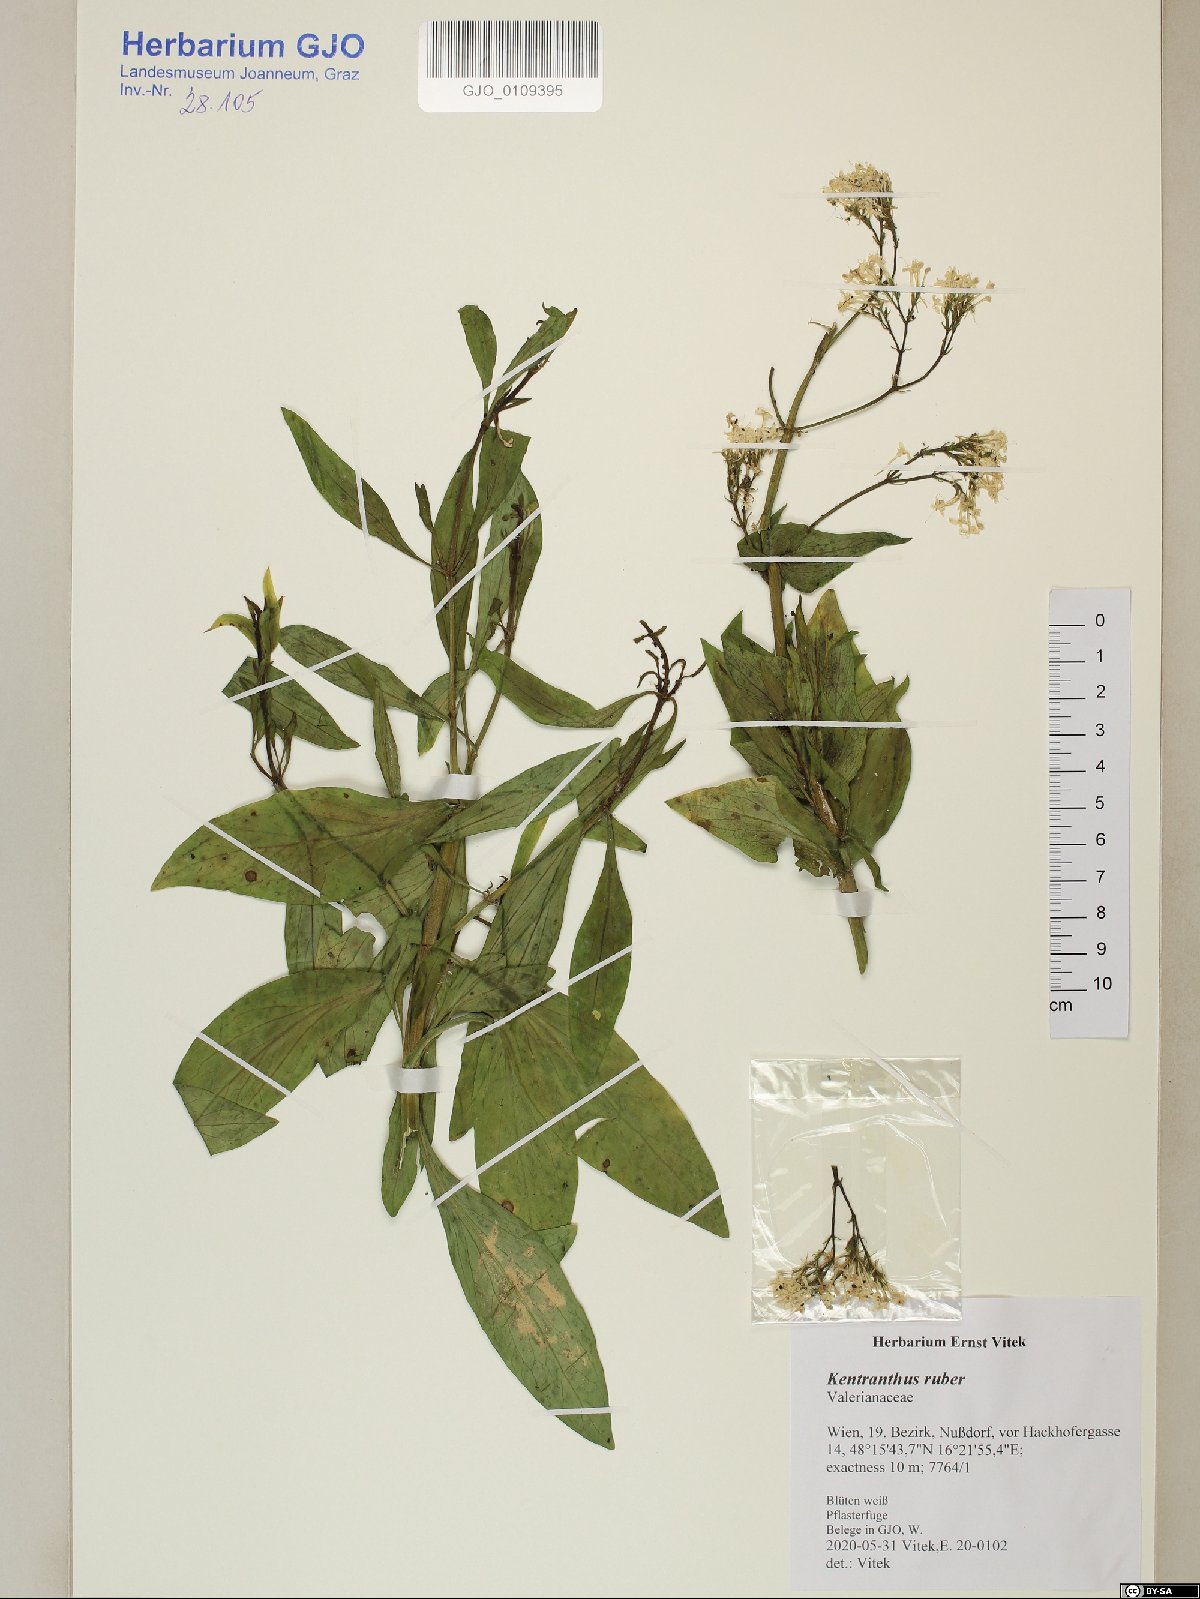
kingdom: Plantae
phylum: Tracheophyta
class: Magnoliopsida
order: Dipsacales
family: Caprifoliaceae
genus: Centranthus
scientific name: Centranthus ruber
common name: Red valerian
